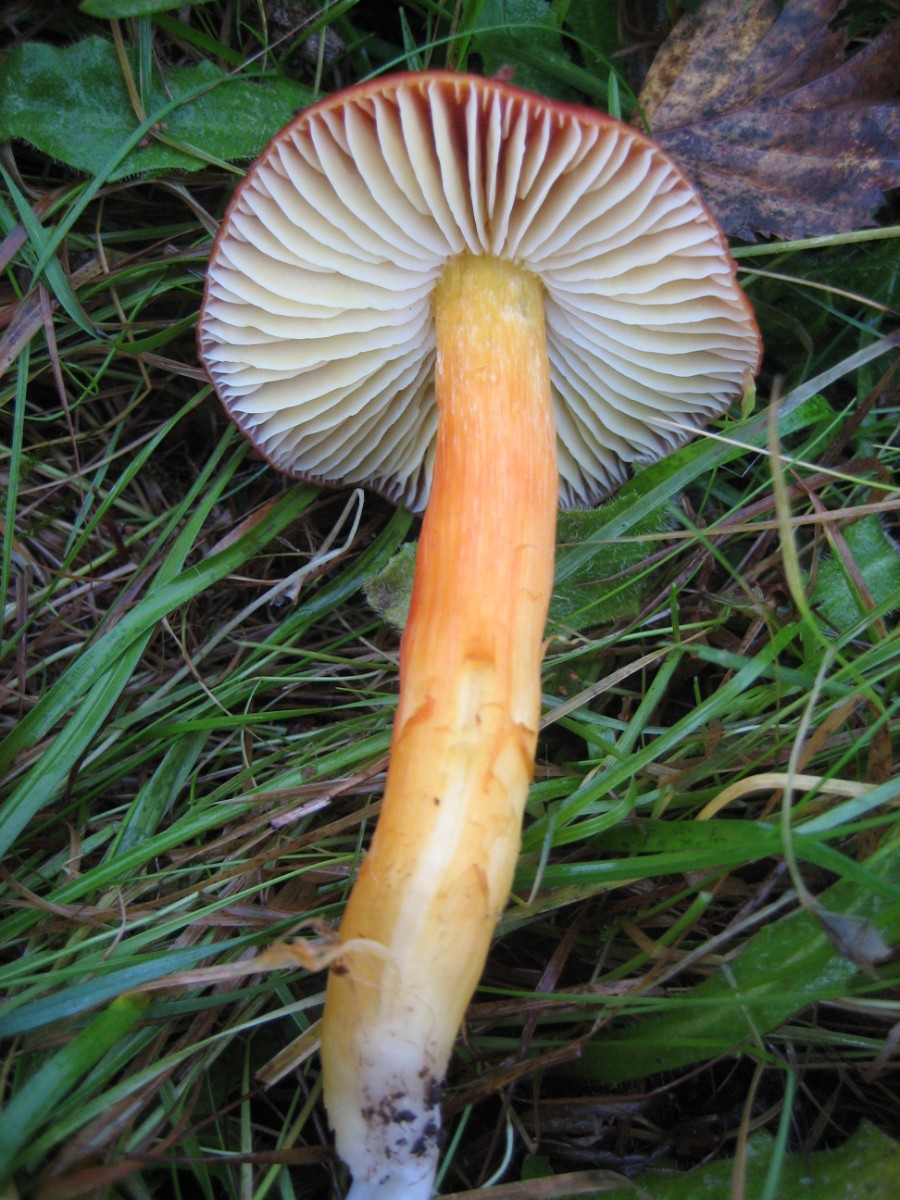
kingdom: Fungi
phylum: Basidiomycota
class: Agaricomycetes
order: Agaricales
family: Hygrophoraceae
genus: Hygrocybe
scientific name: Hygrocybe punicea
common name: skarlagen-vokshat
